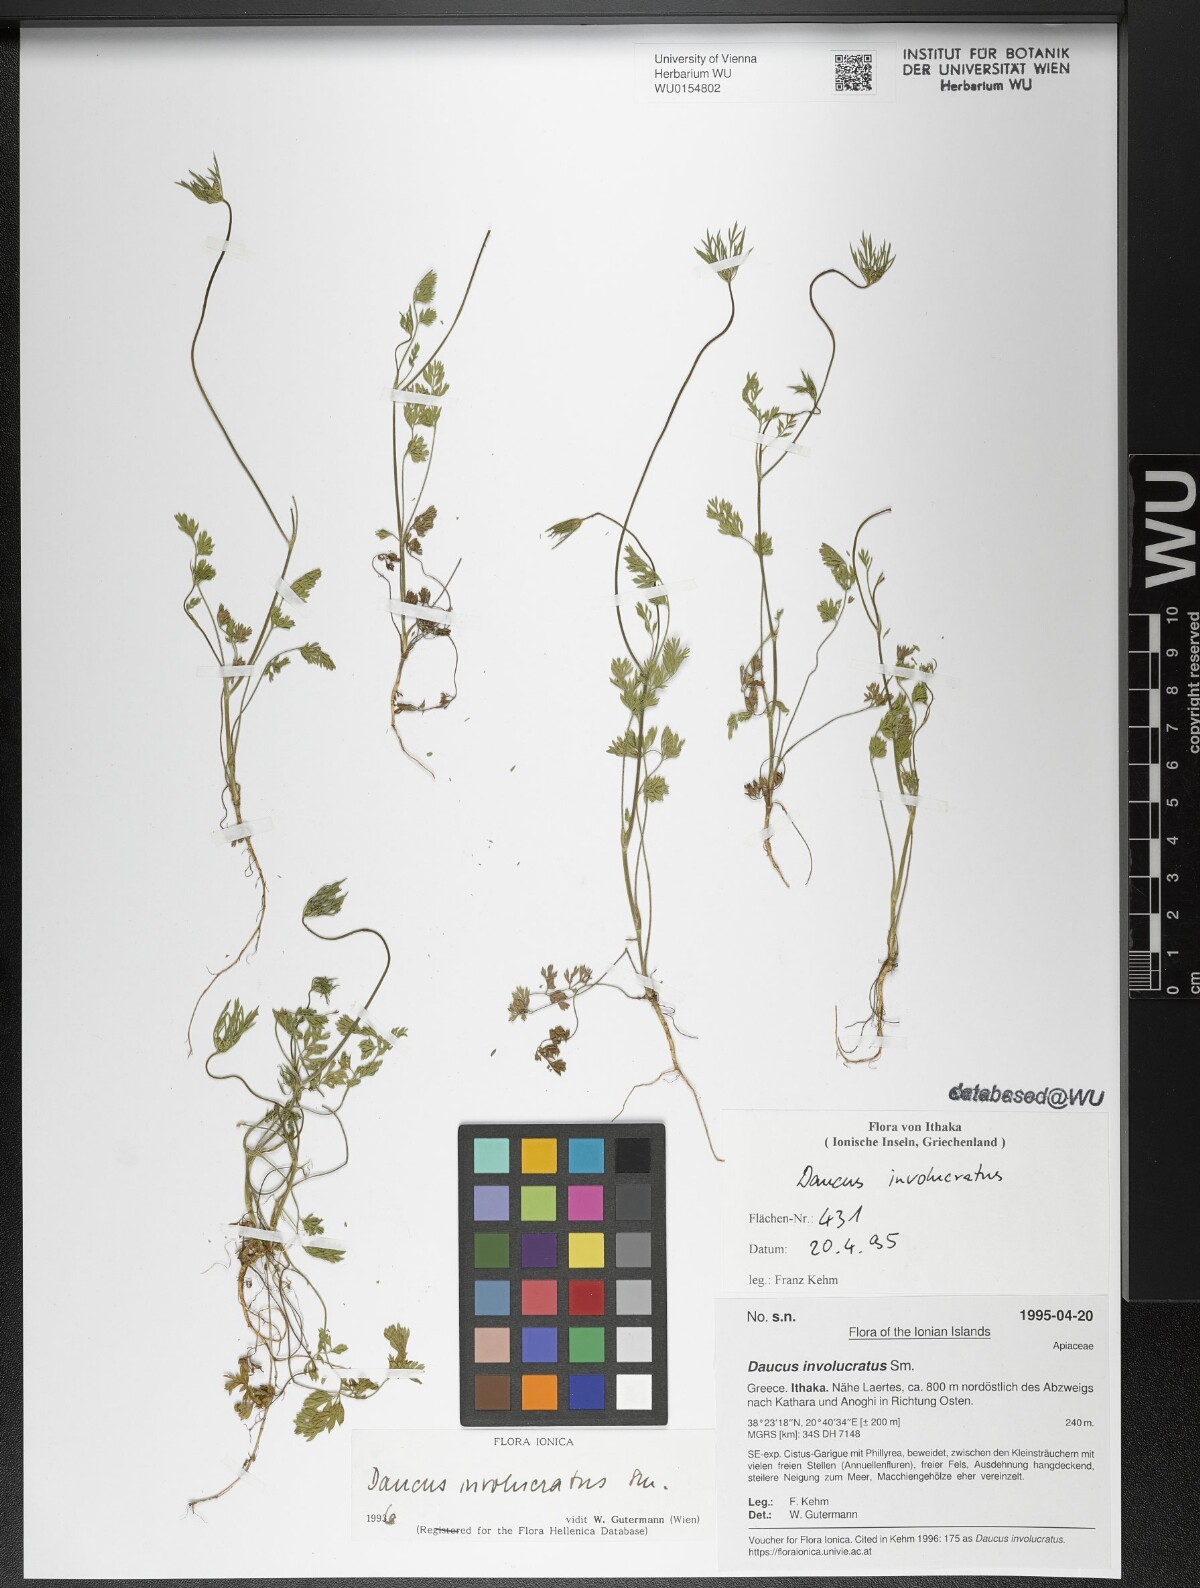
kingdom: Plantae
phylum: Tracheophyta
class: Magnoliopsida
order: Apiales
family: Apiaceae
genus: Daucus
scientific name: Daucus involucratus
